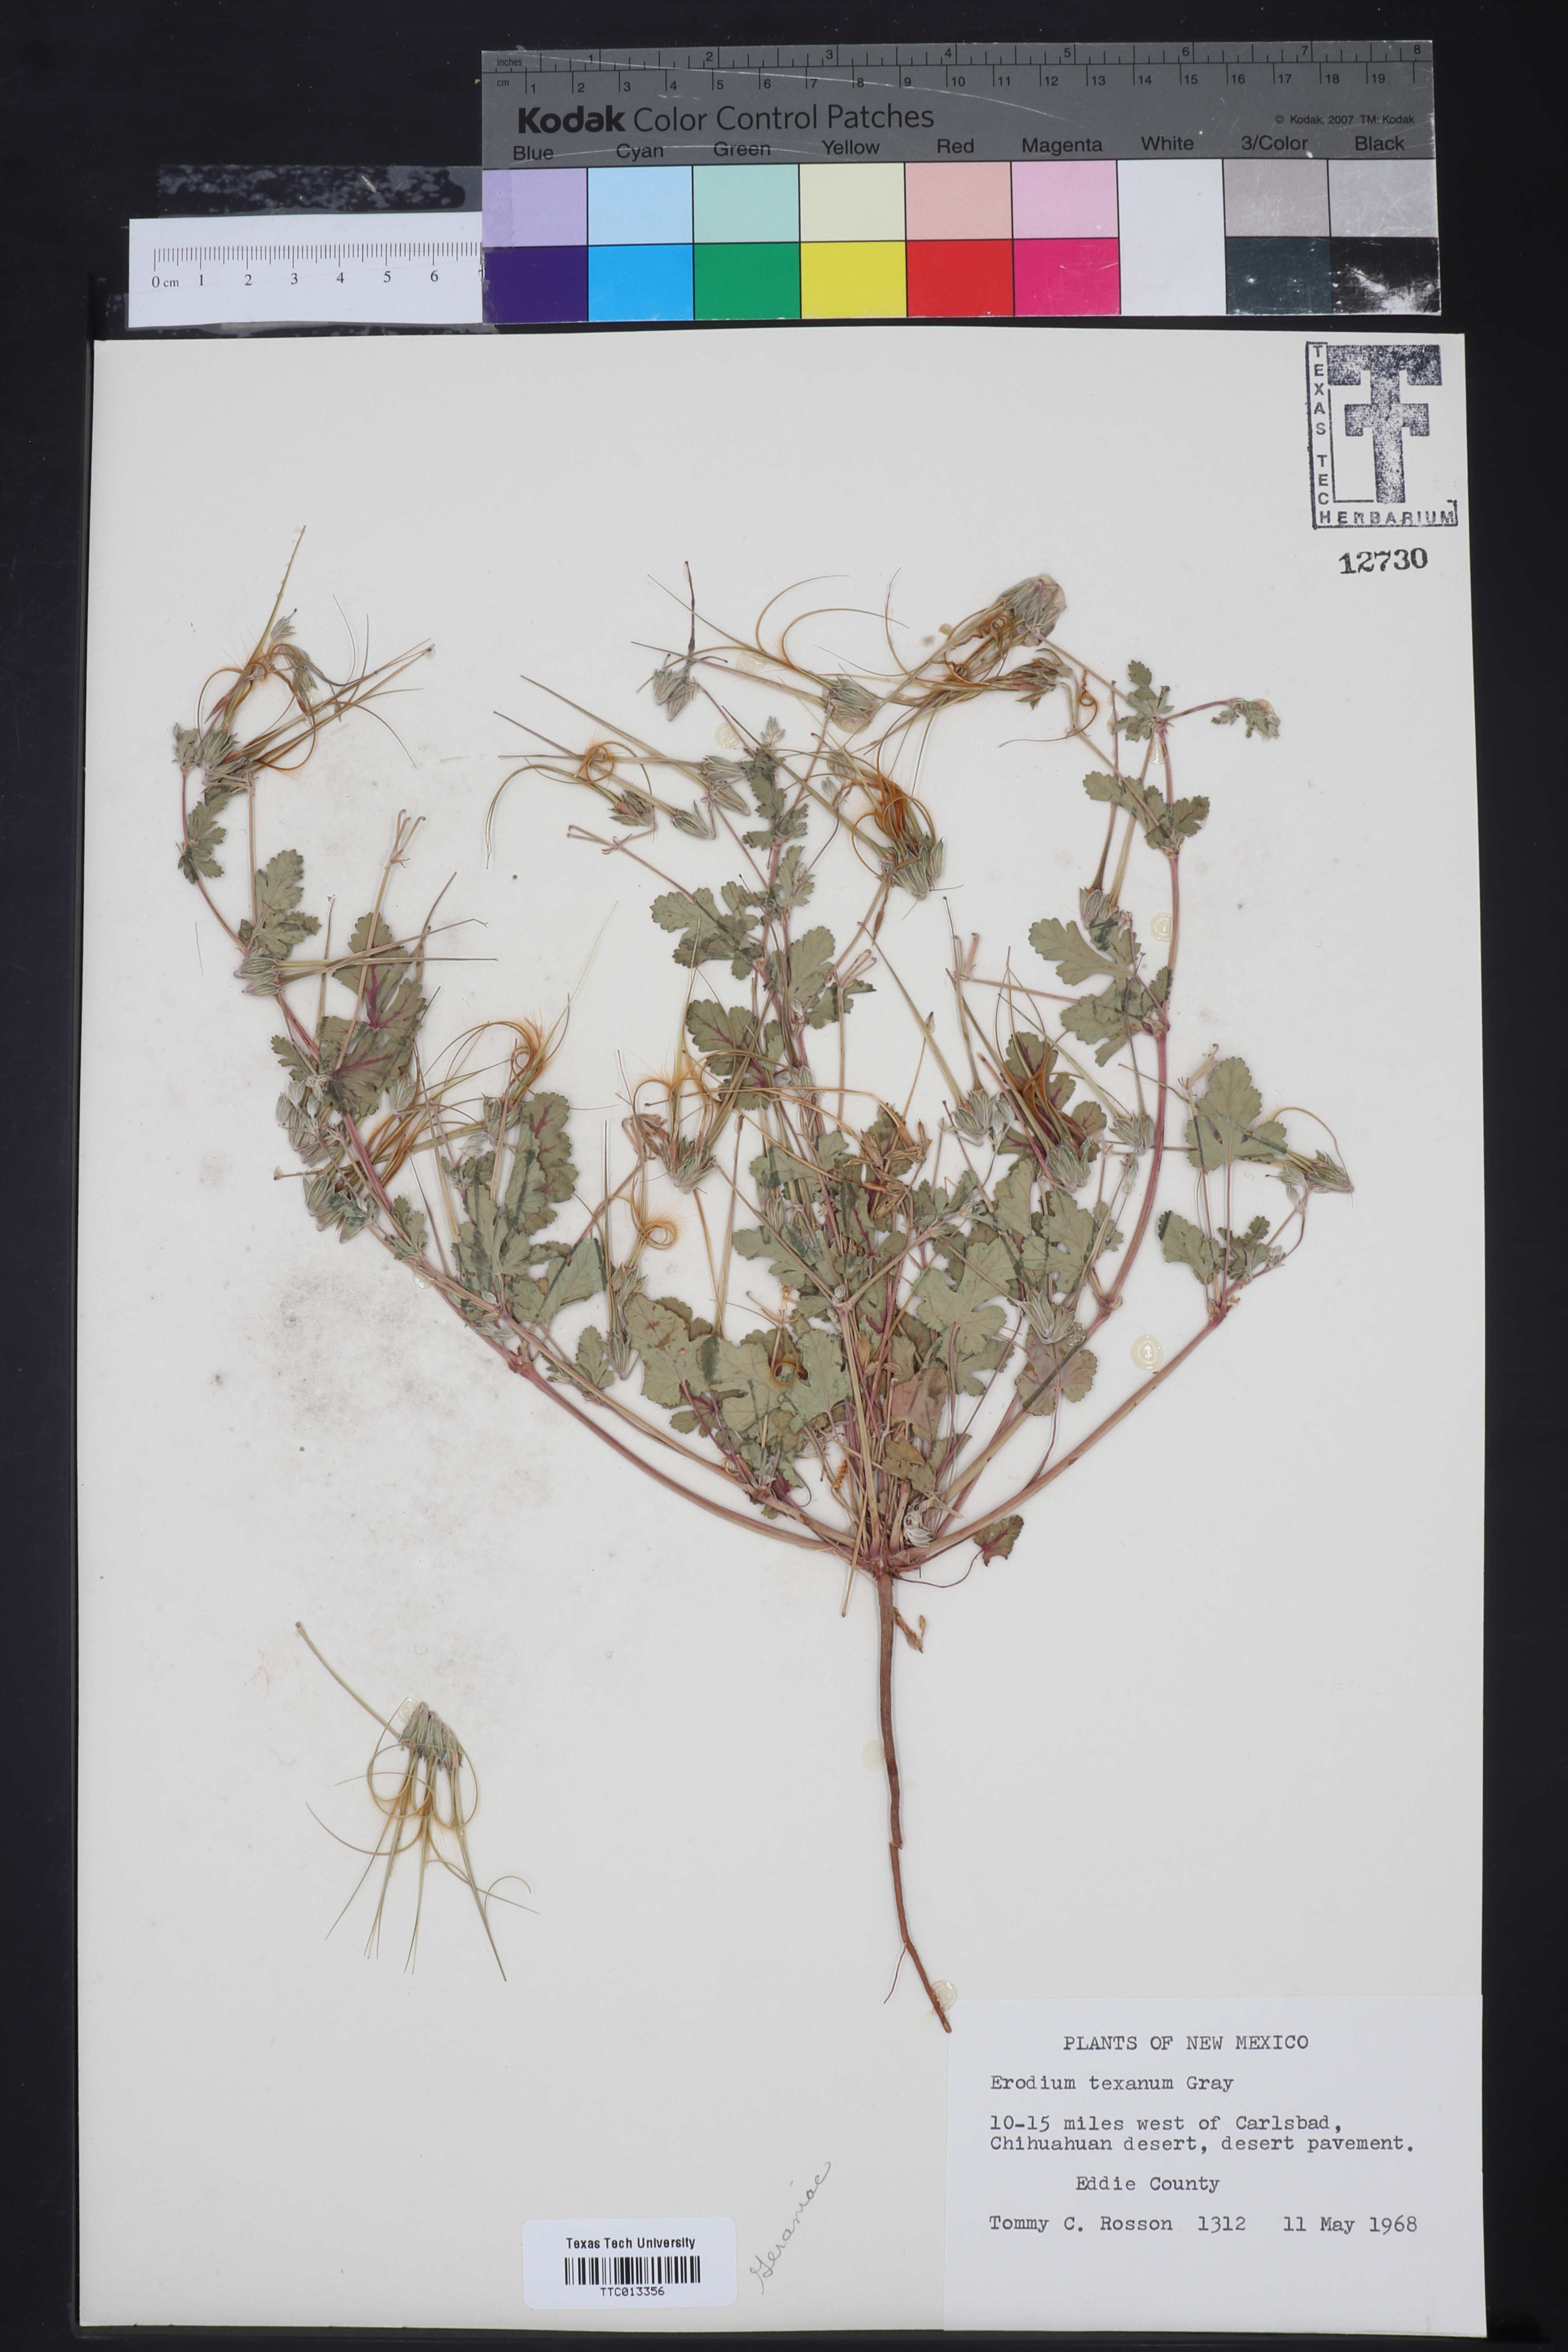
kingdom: Plantae
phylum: Tracheophyta
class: Magnoliopsida
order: Geraniales
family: Geraniaceae
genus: Erodium
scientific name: Erodium texanum
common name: Texas stork's-bill
